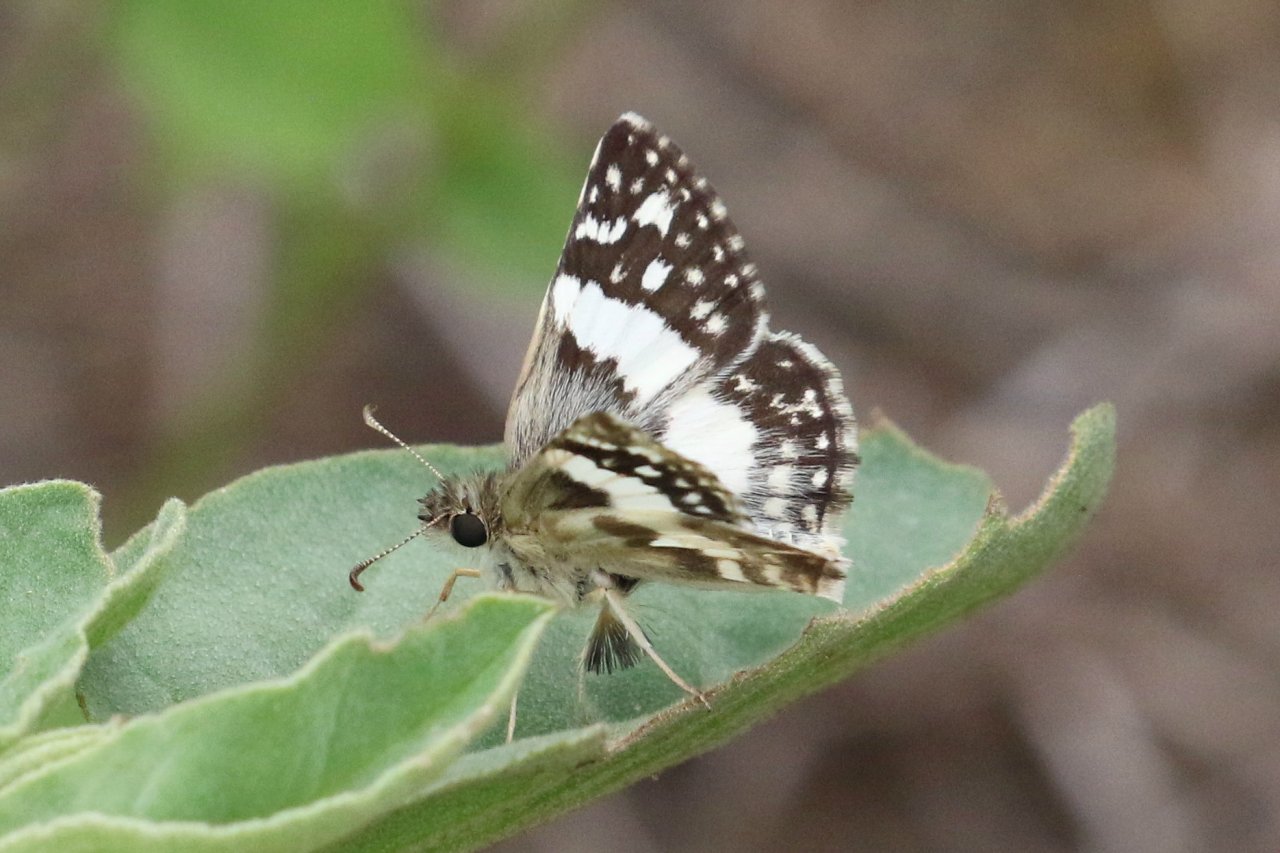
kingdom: Animalia
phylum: Arthropoda
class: Insecta
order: Lepidoptera
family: Hesperiidae
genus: Heliopyrgus
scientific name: Heliopyrgus domicella
